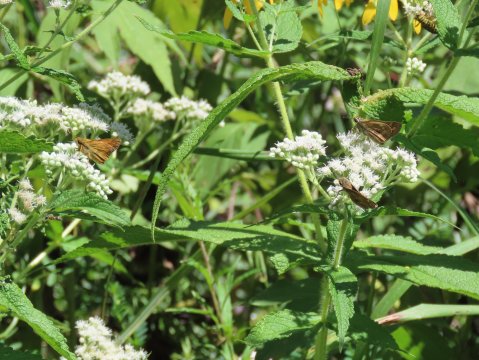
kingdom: Animalia
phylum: Arthropoda
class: Insecta
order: Lepidoptera
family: Hesperiidae
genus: Atalopedes
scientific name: Atalopedes campestris
